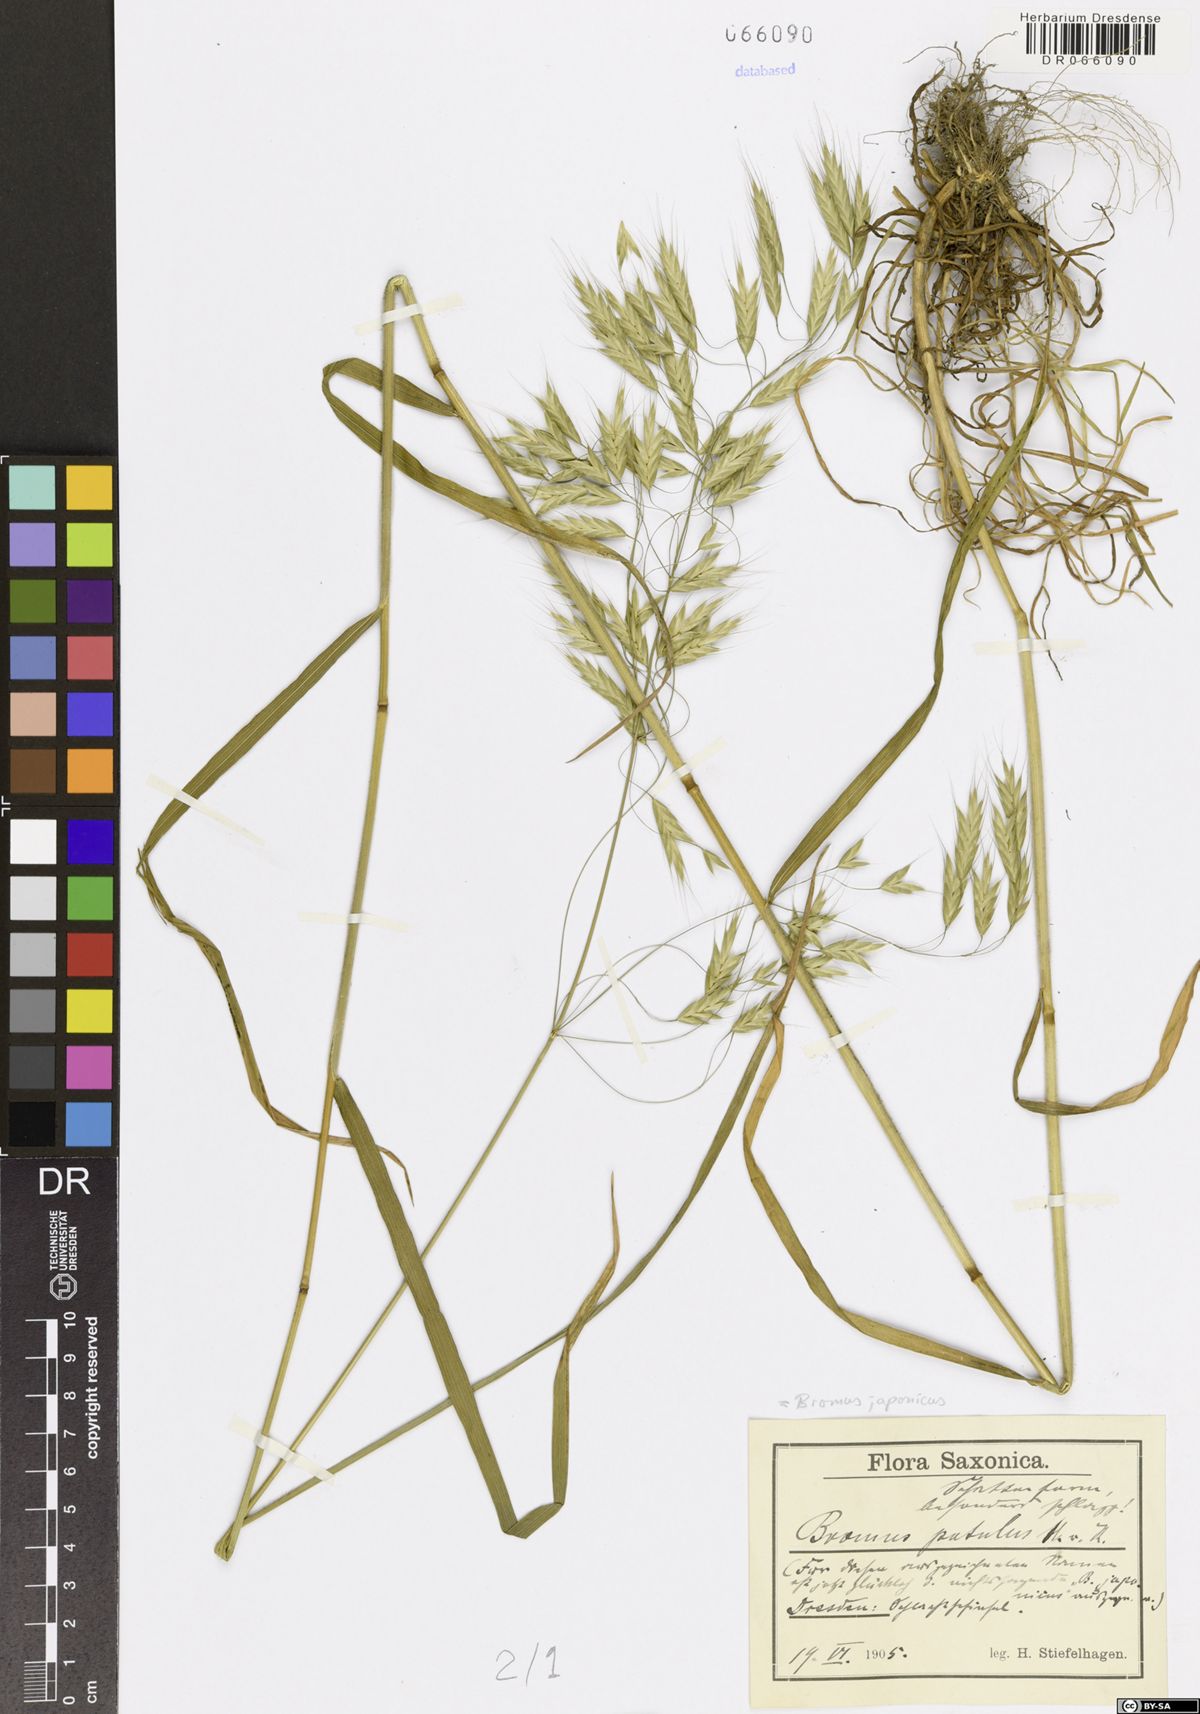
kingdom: Plantae
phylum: Tracheophyta
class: Liliopsida
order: Poales
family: Poaceae
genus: Bromus
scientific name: Bromus japonicus
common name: Japanese brome
